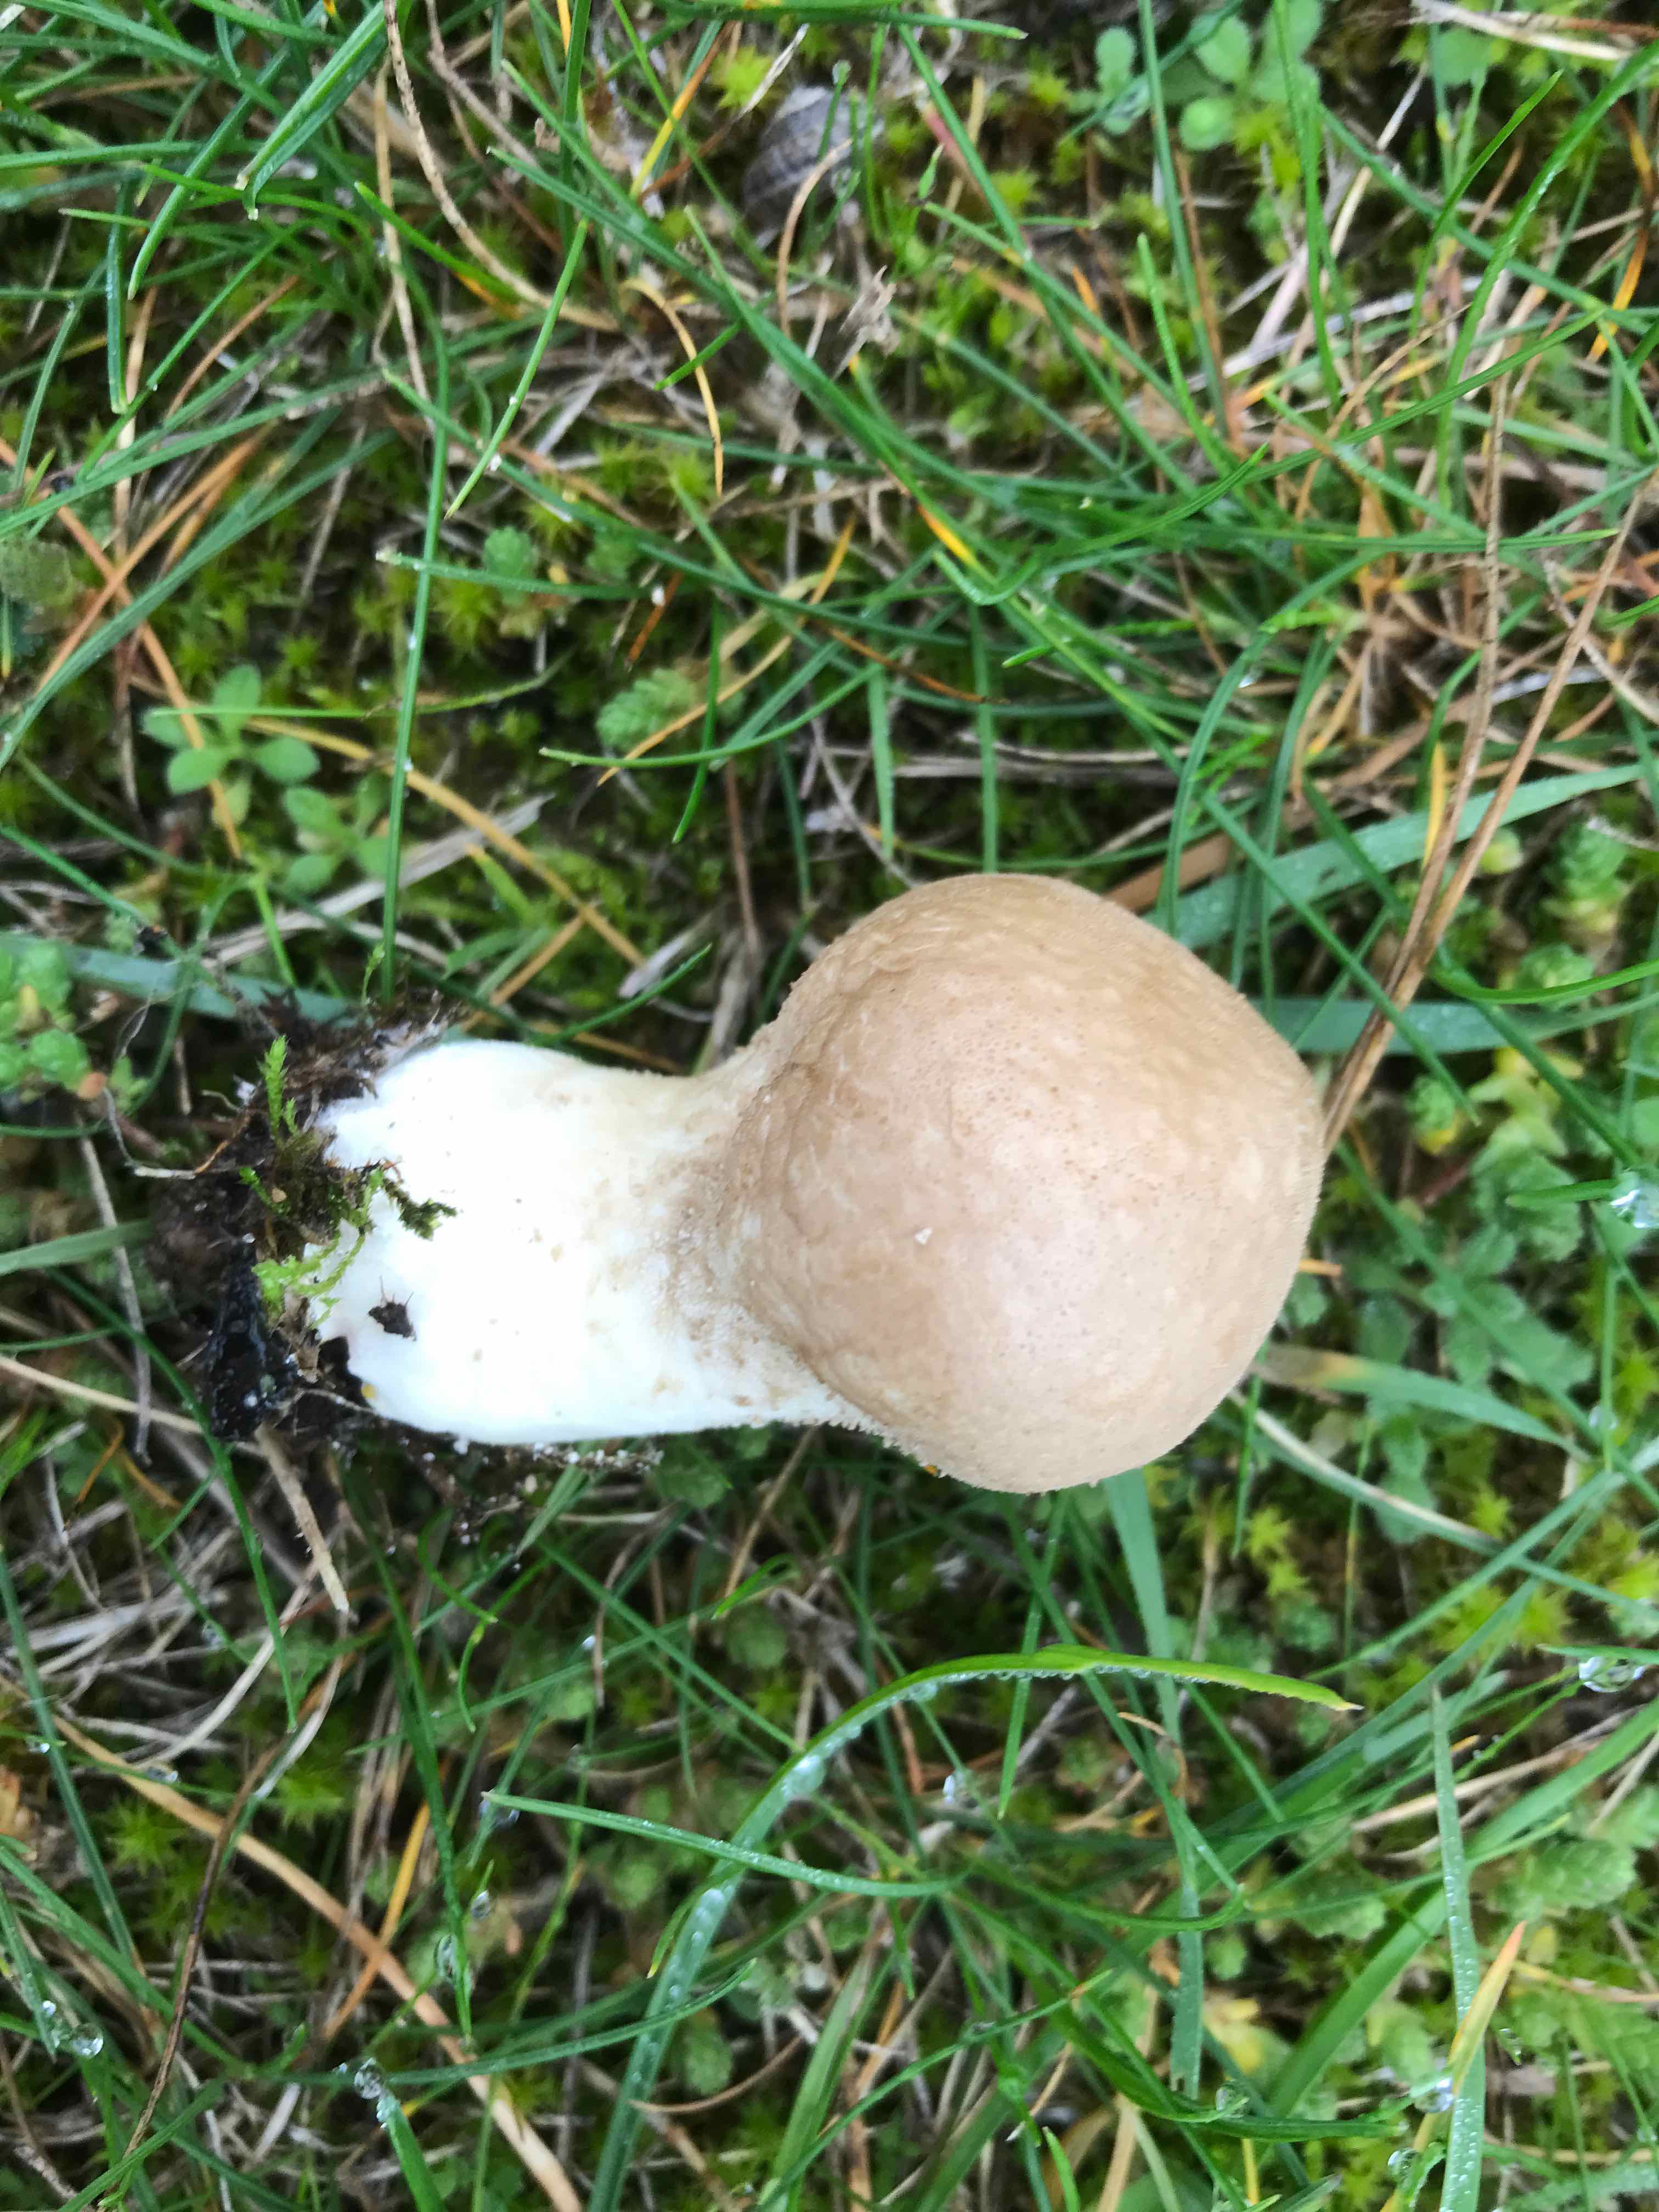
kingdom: Fungi
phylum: Basidiomycota
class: Agaricomycetes
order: Agaricales
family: Agaricaceae
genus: Lycoperdon
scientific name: Lycoperdon
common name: støvbold
